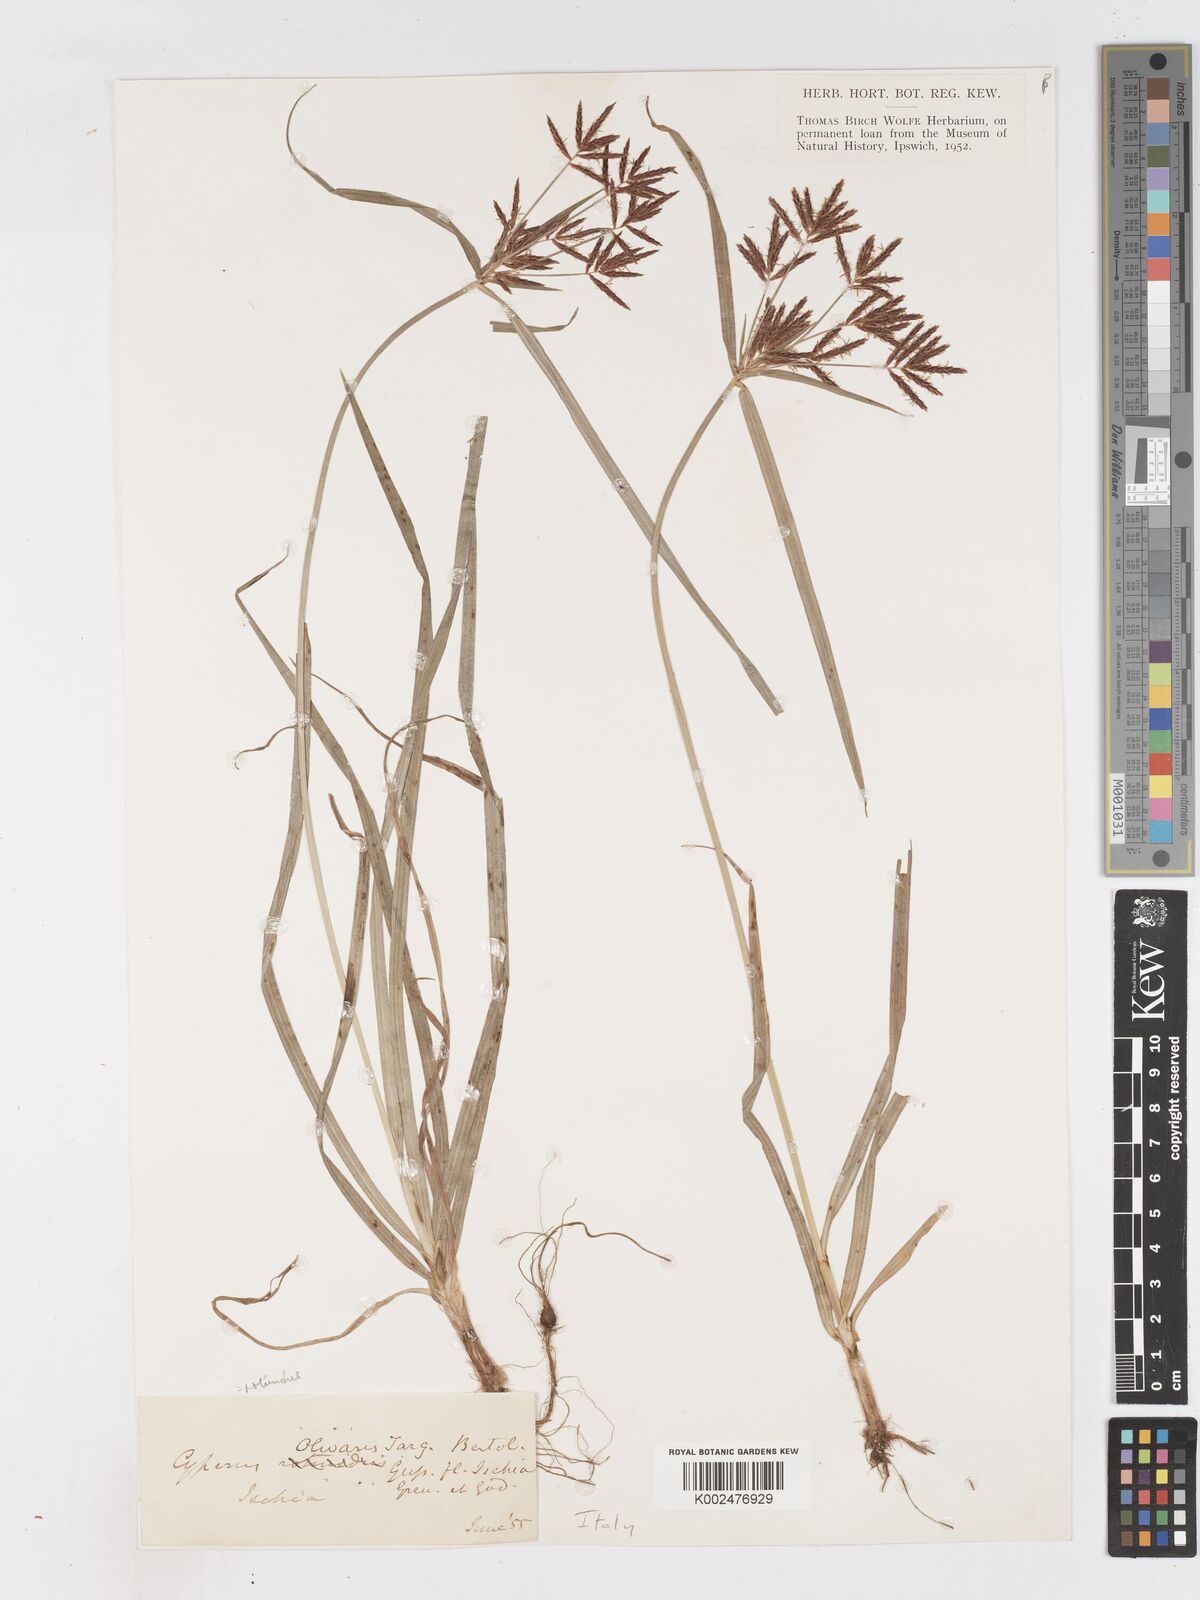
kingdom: Plantae
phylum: Tracheophyta
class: Liliopsida
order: Poales
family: Cyperaceae
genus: Cyperus
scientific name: Cyperus rotundus
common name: Nutgrass
